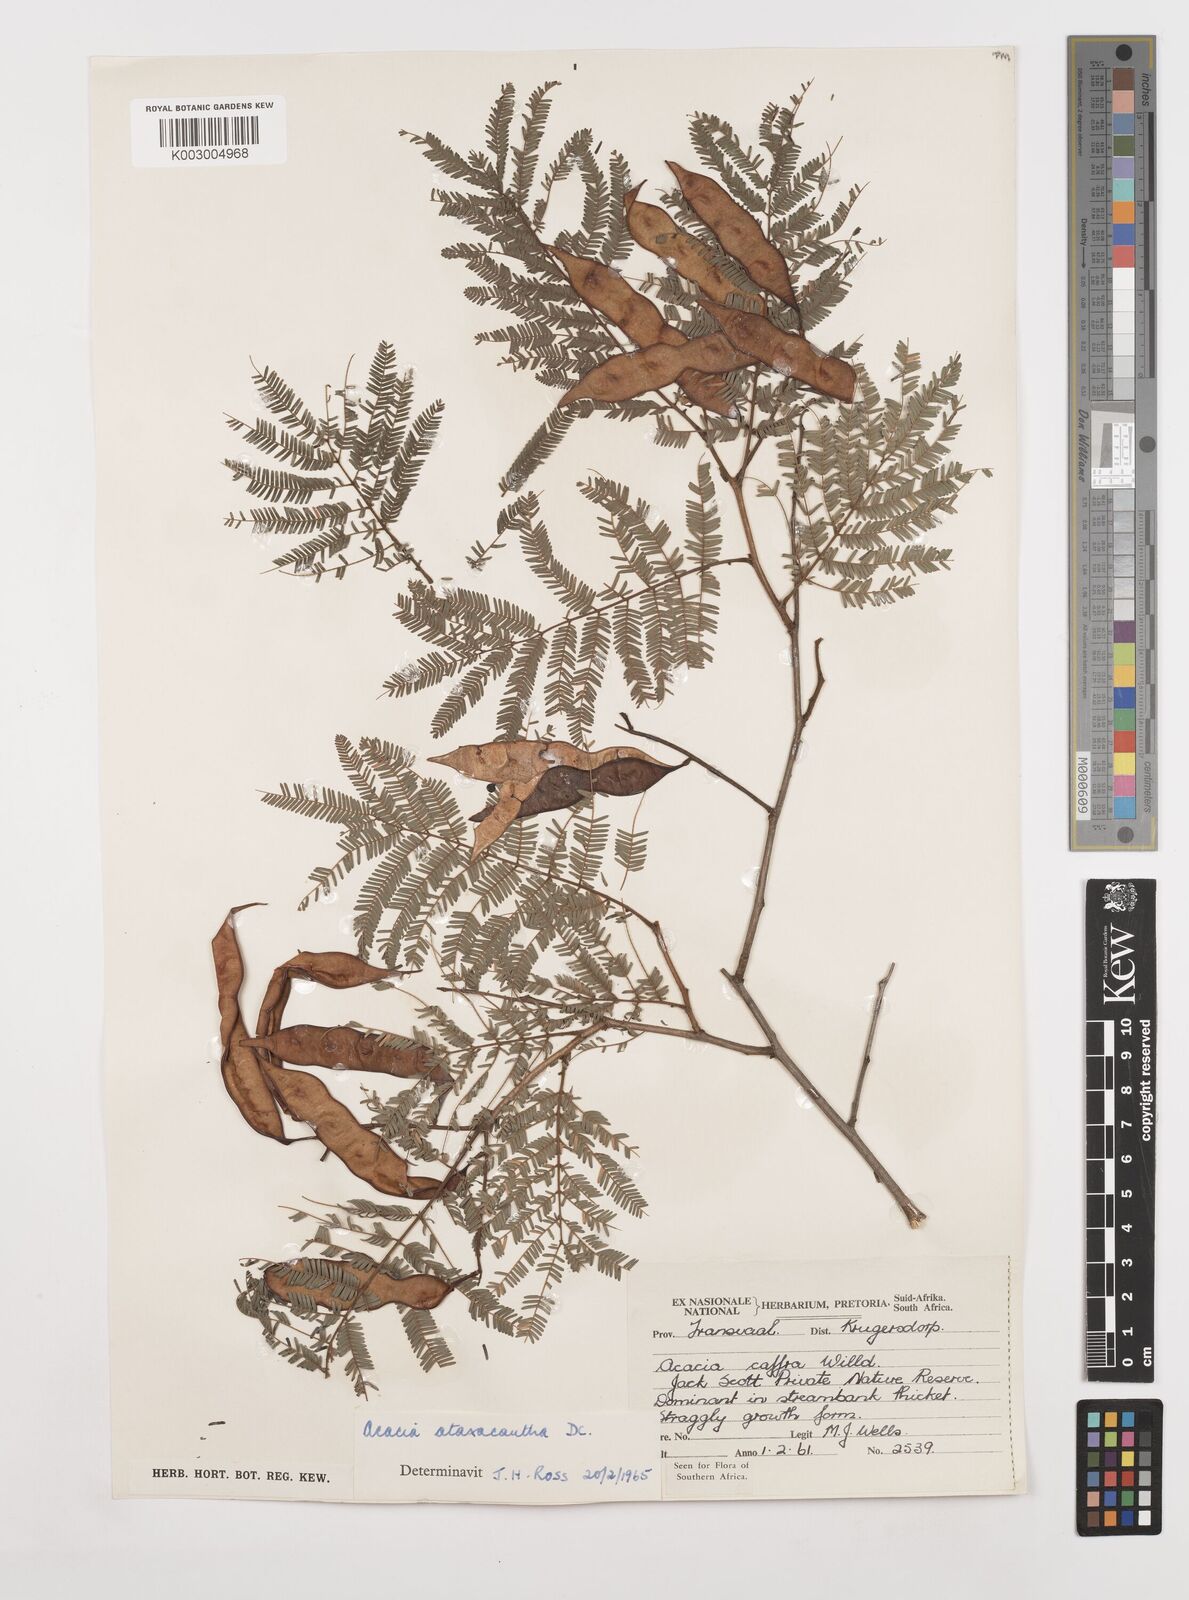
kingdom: Plantae
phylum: Tracheophyta
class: Magnoliopsida
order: Fabales
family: Fabaceae
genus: Senegalia
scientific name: Senegalia ataxacantha
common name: Flame acacia
